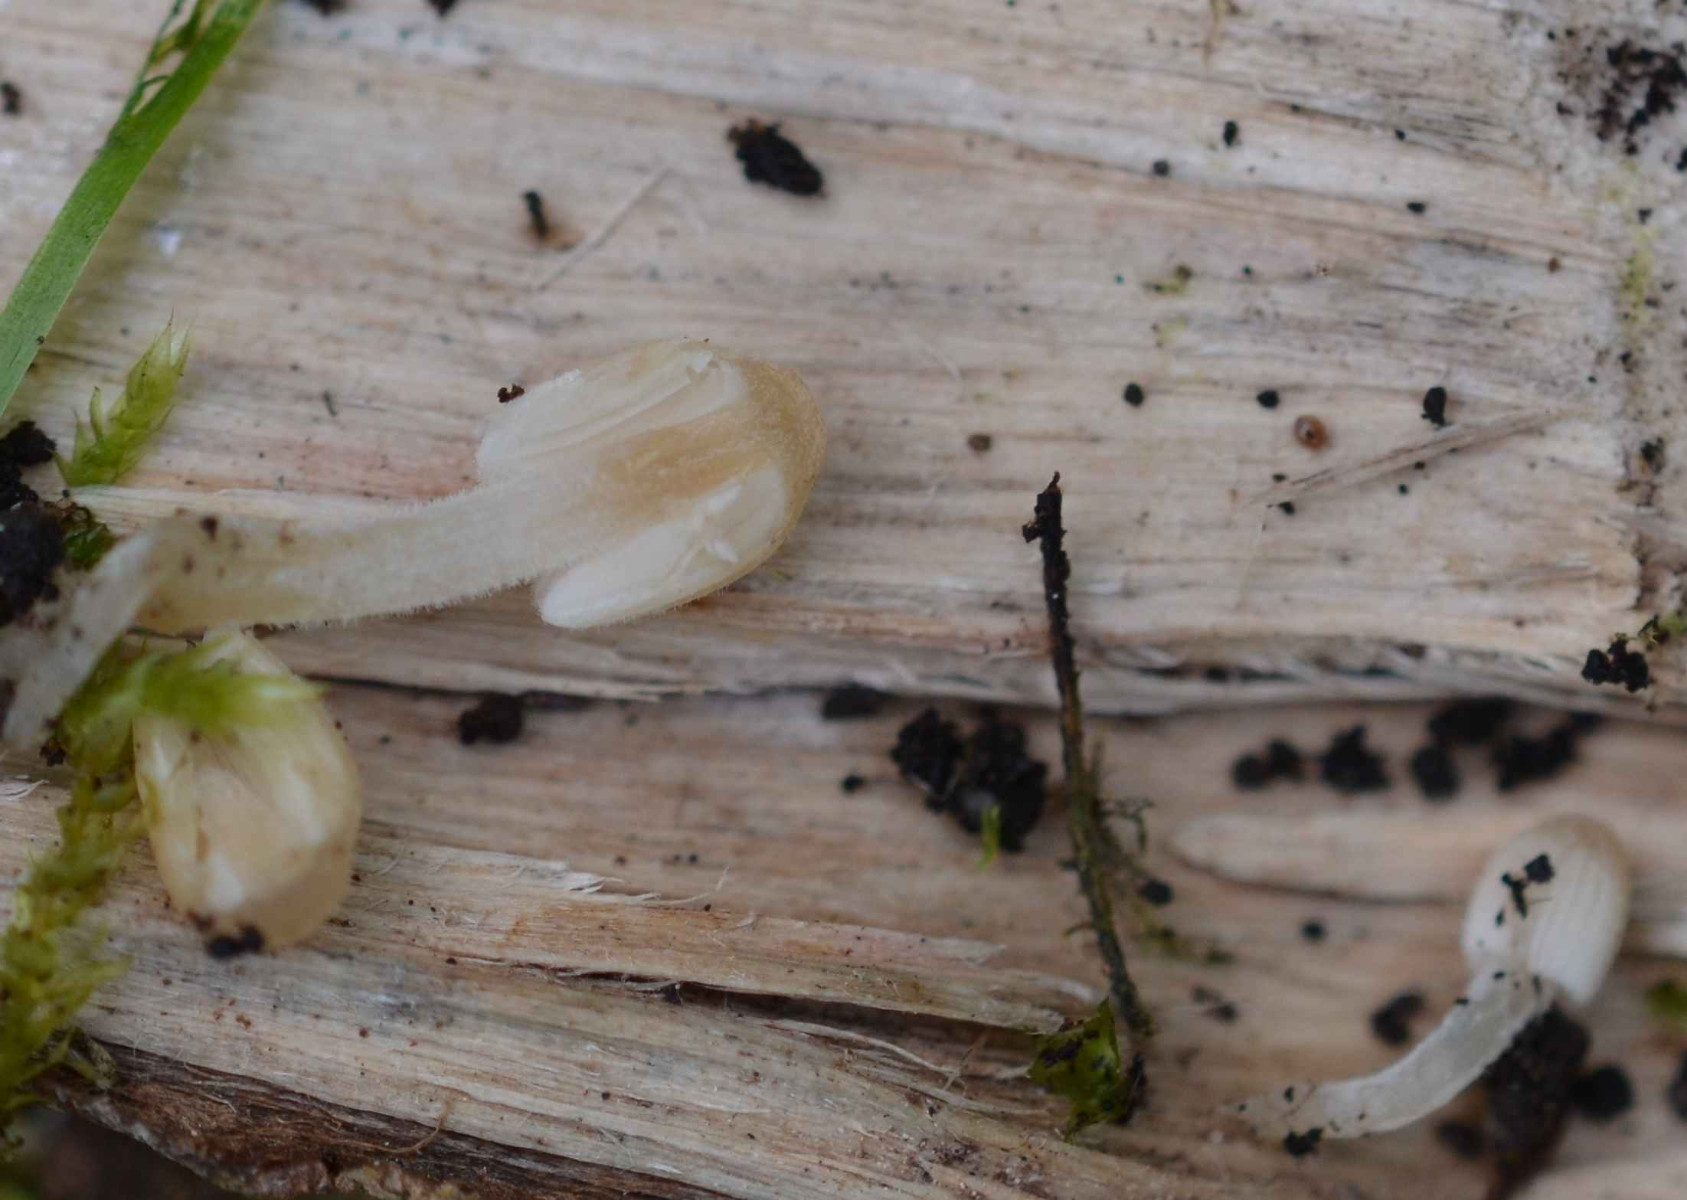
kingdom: Fungi
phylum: Basidiomycota
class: Agaricomycetes
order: Agaricales
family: Psathyrellaceae
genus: Coprinellus
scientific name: Coprinellus disseminatus
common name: bredsået blækhat
